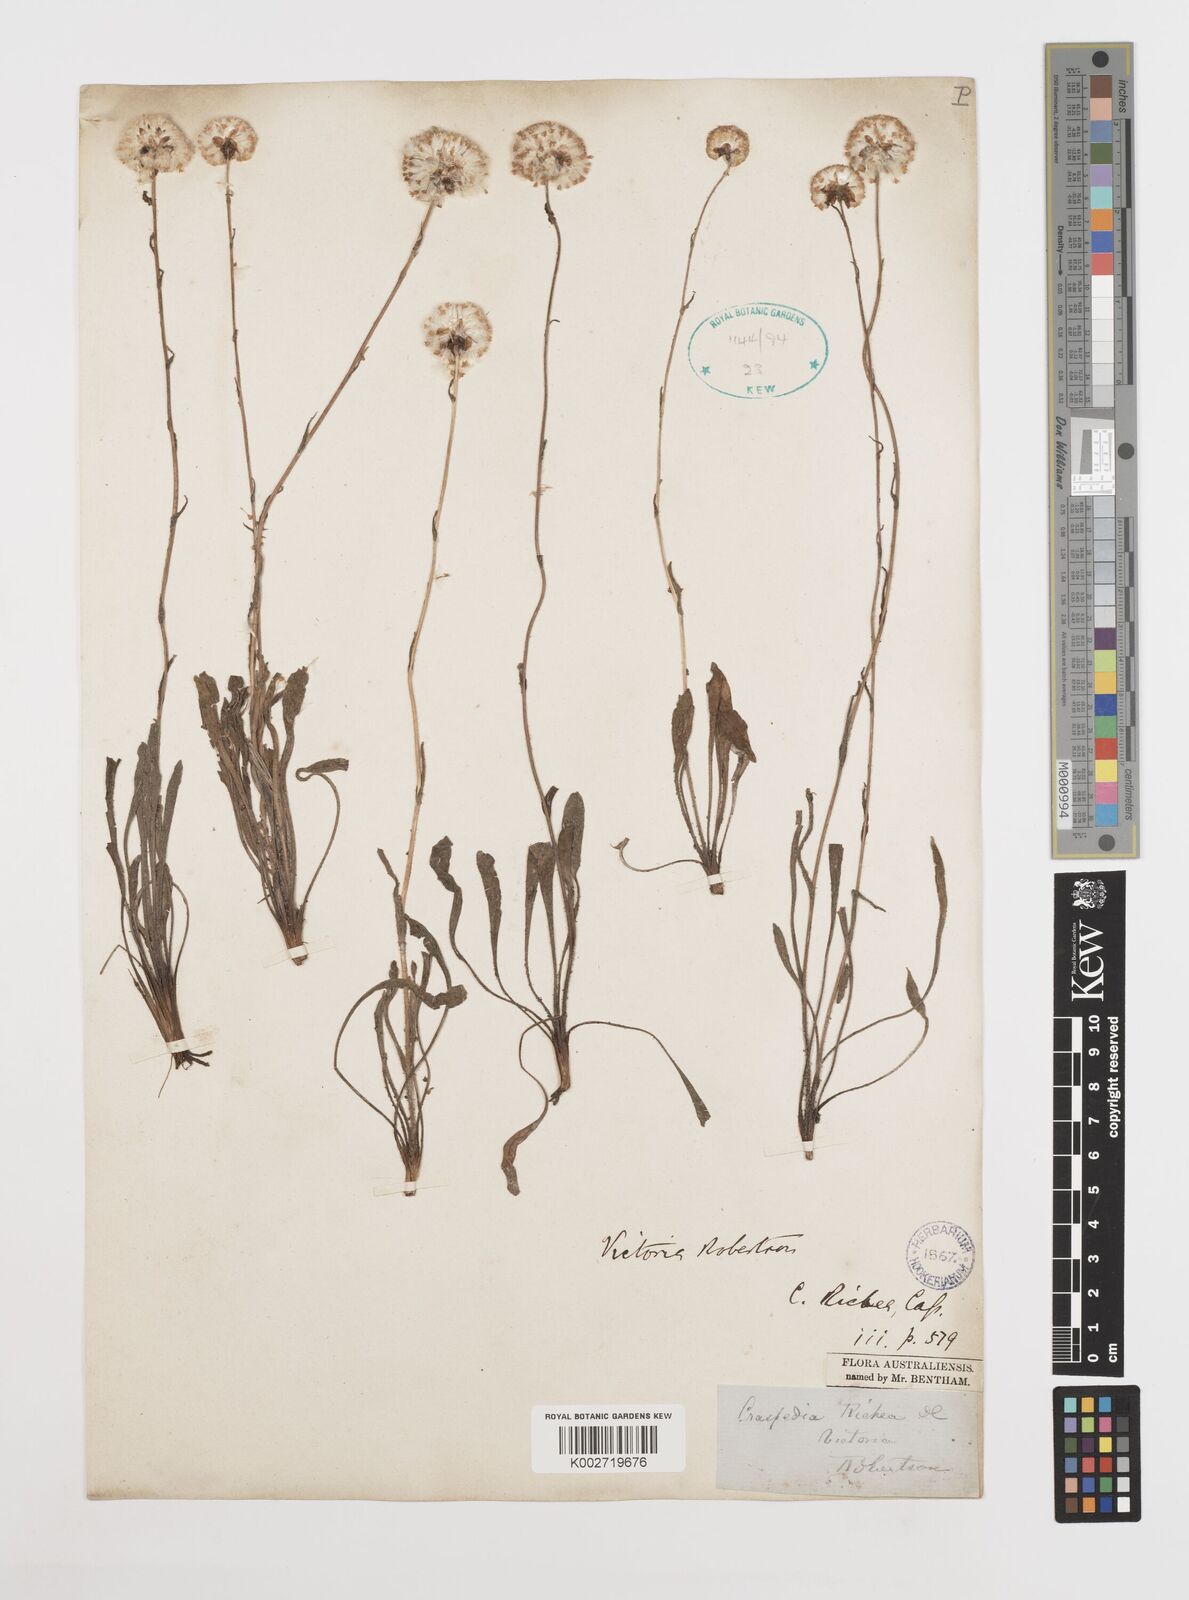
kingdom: Plantae
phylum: Tracheophyta
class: Magnoliopsida
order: Asterales
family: Asteraceae
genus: Craspedia
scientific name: Craspedia glauca
